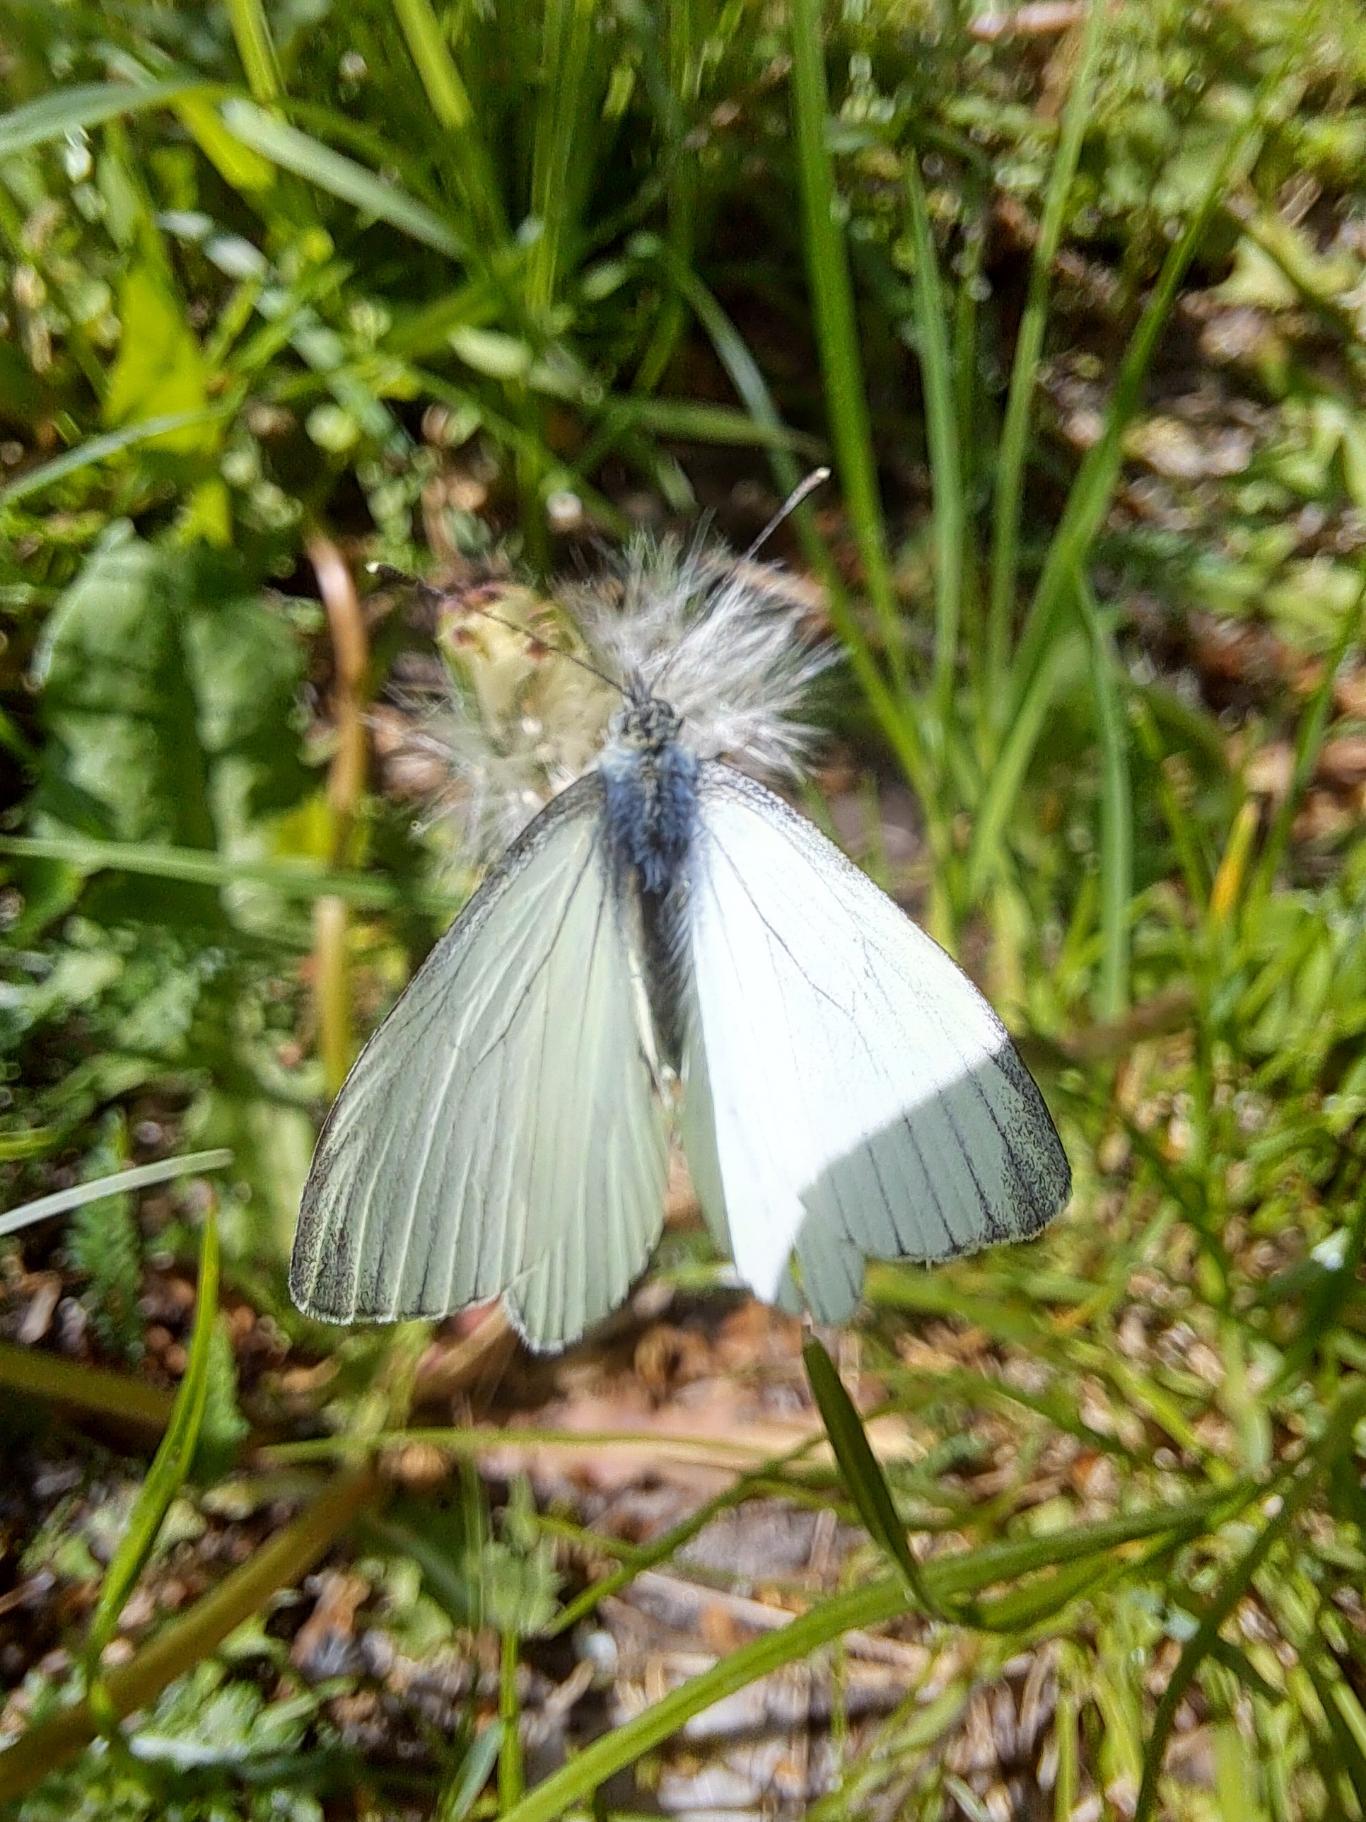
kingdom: Animalia
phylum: Arthropoda
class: Insecta
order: Lepidoptera
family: Pieridae
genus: Pieris
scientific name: Pieris napi
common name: Grønåret kålsommerfugl
